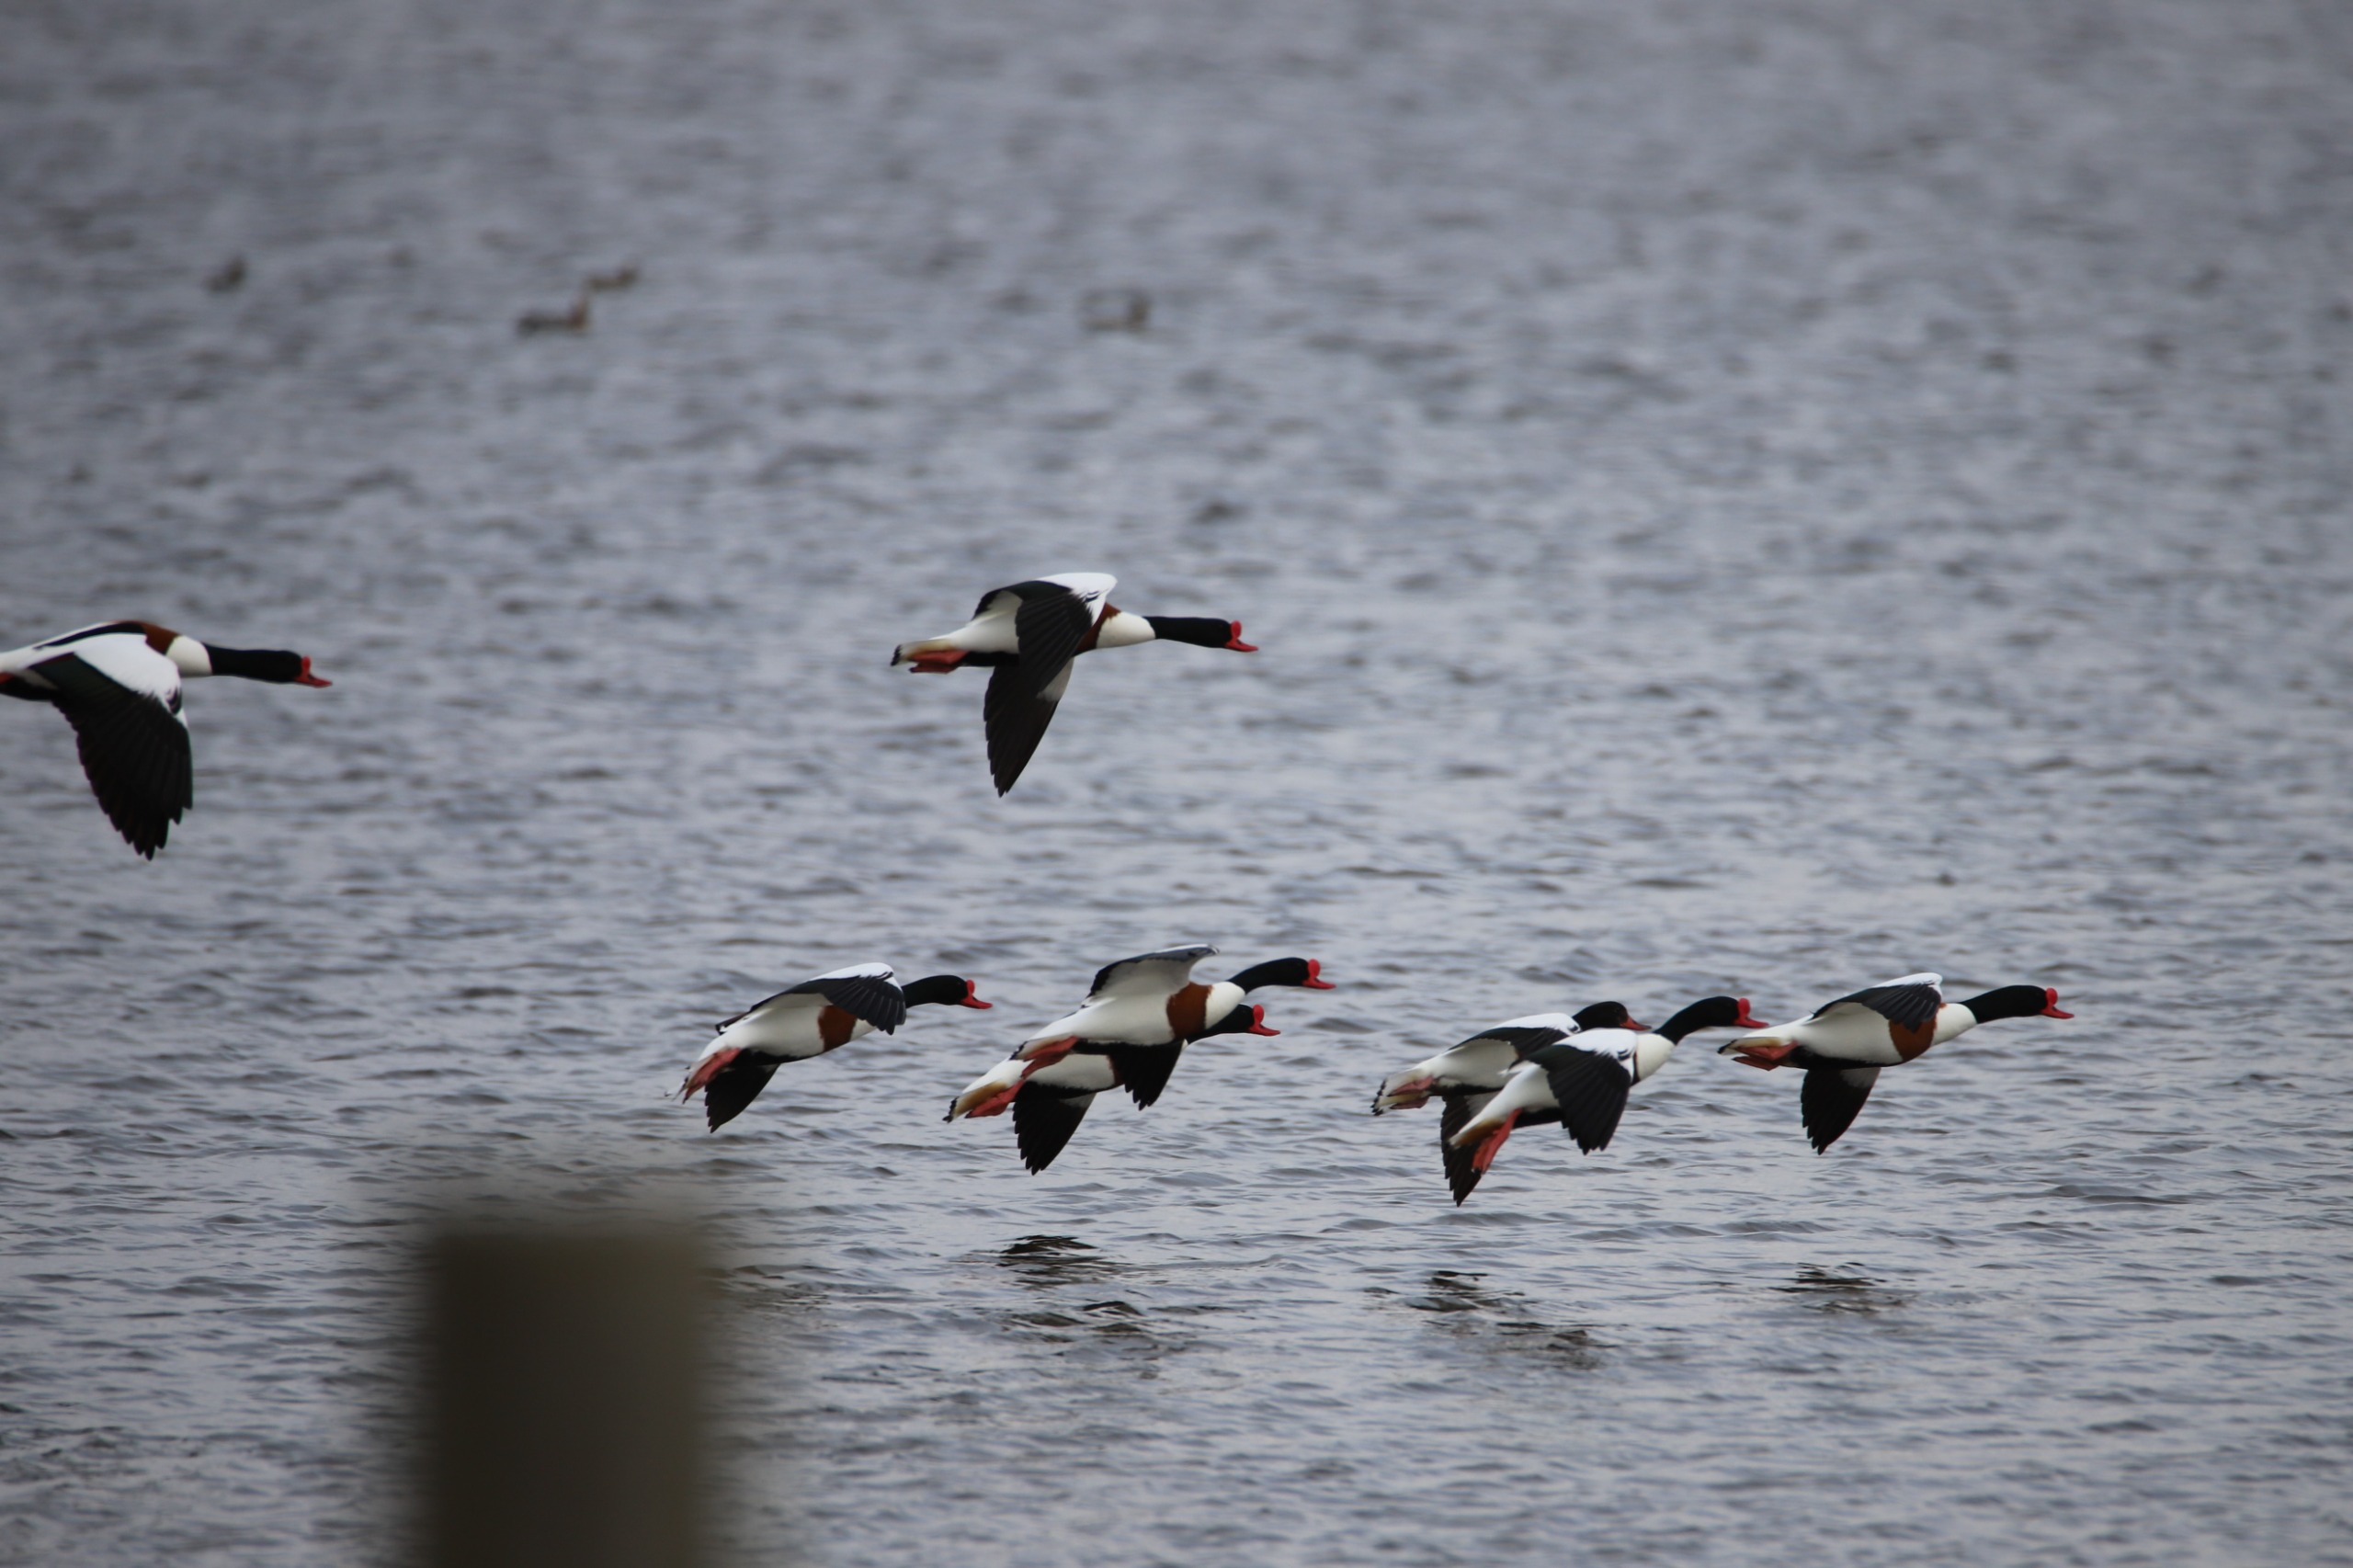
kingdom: Animalia
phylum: Chordata
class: Aves
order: Anseriformes
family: Anatidae
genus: Tadorna
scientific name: Tadorna tadorna
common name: Gravand
